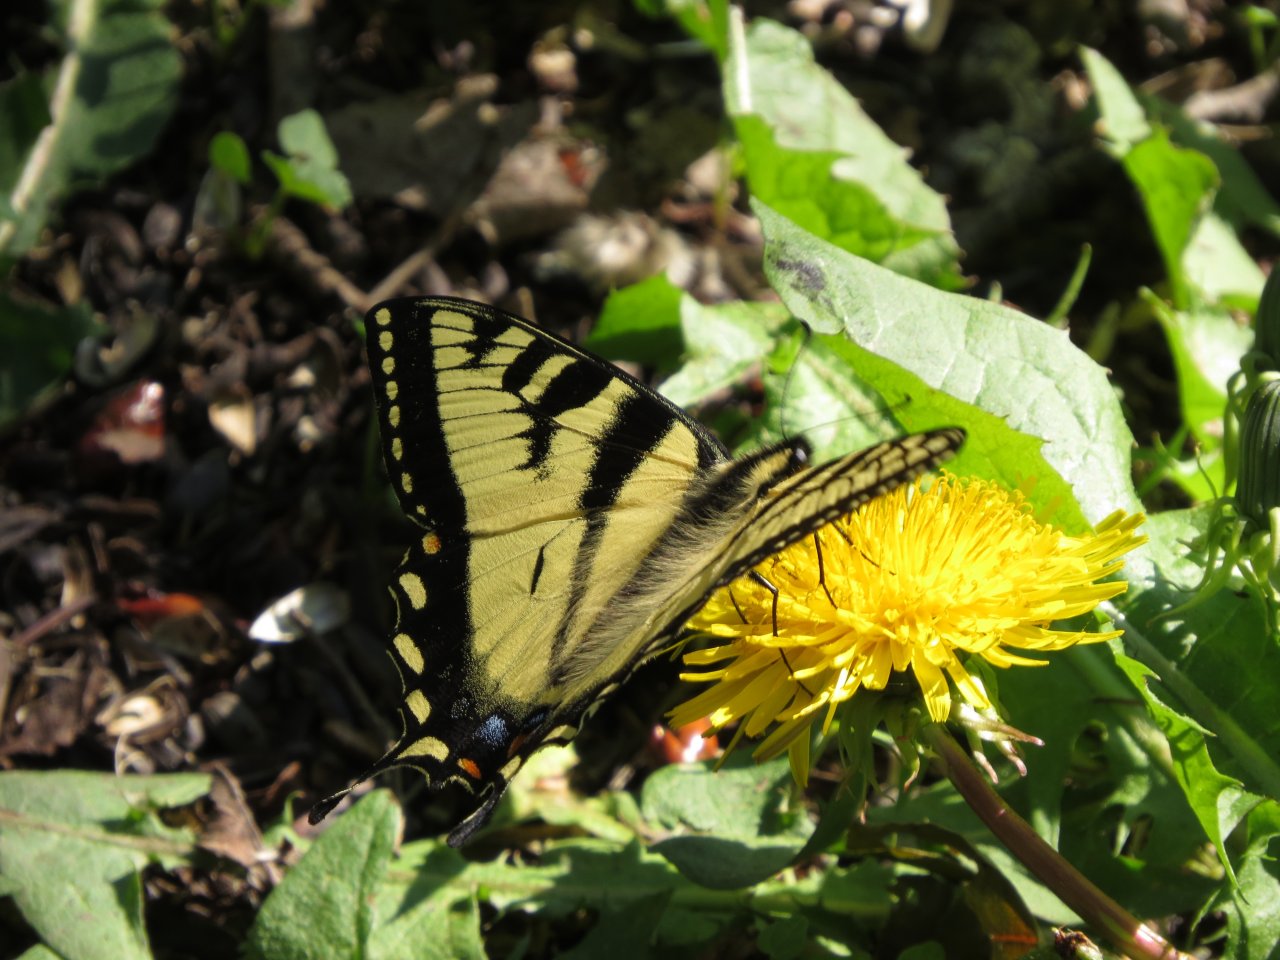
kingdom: Animalia
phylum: Arthropoda
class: Insecta
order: Lepidoptera
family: Papilionidae
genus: Pterourus
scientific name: Pterourus canadensis
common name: Canadian Tiger Swallowtail
